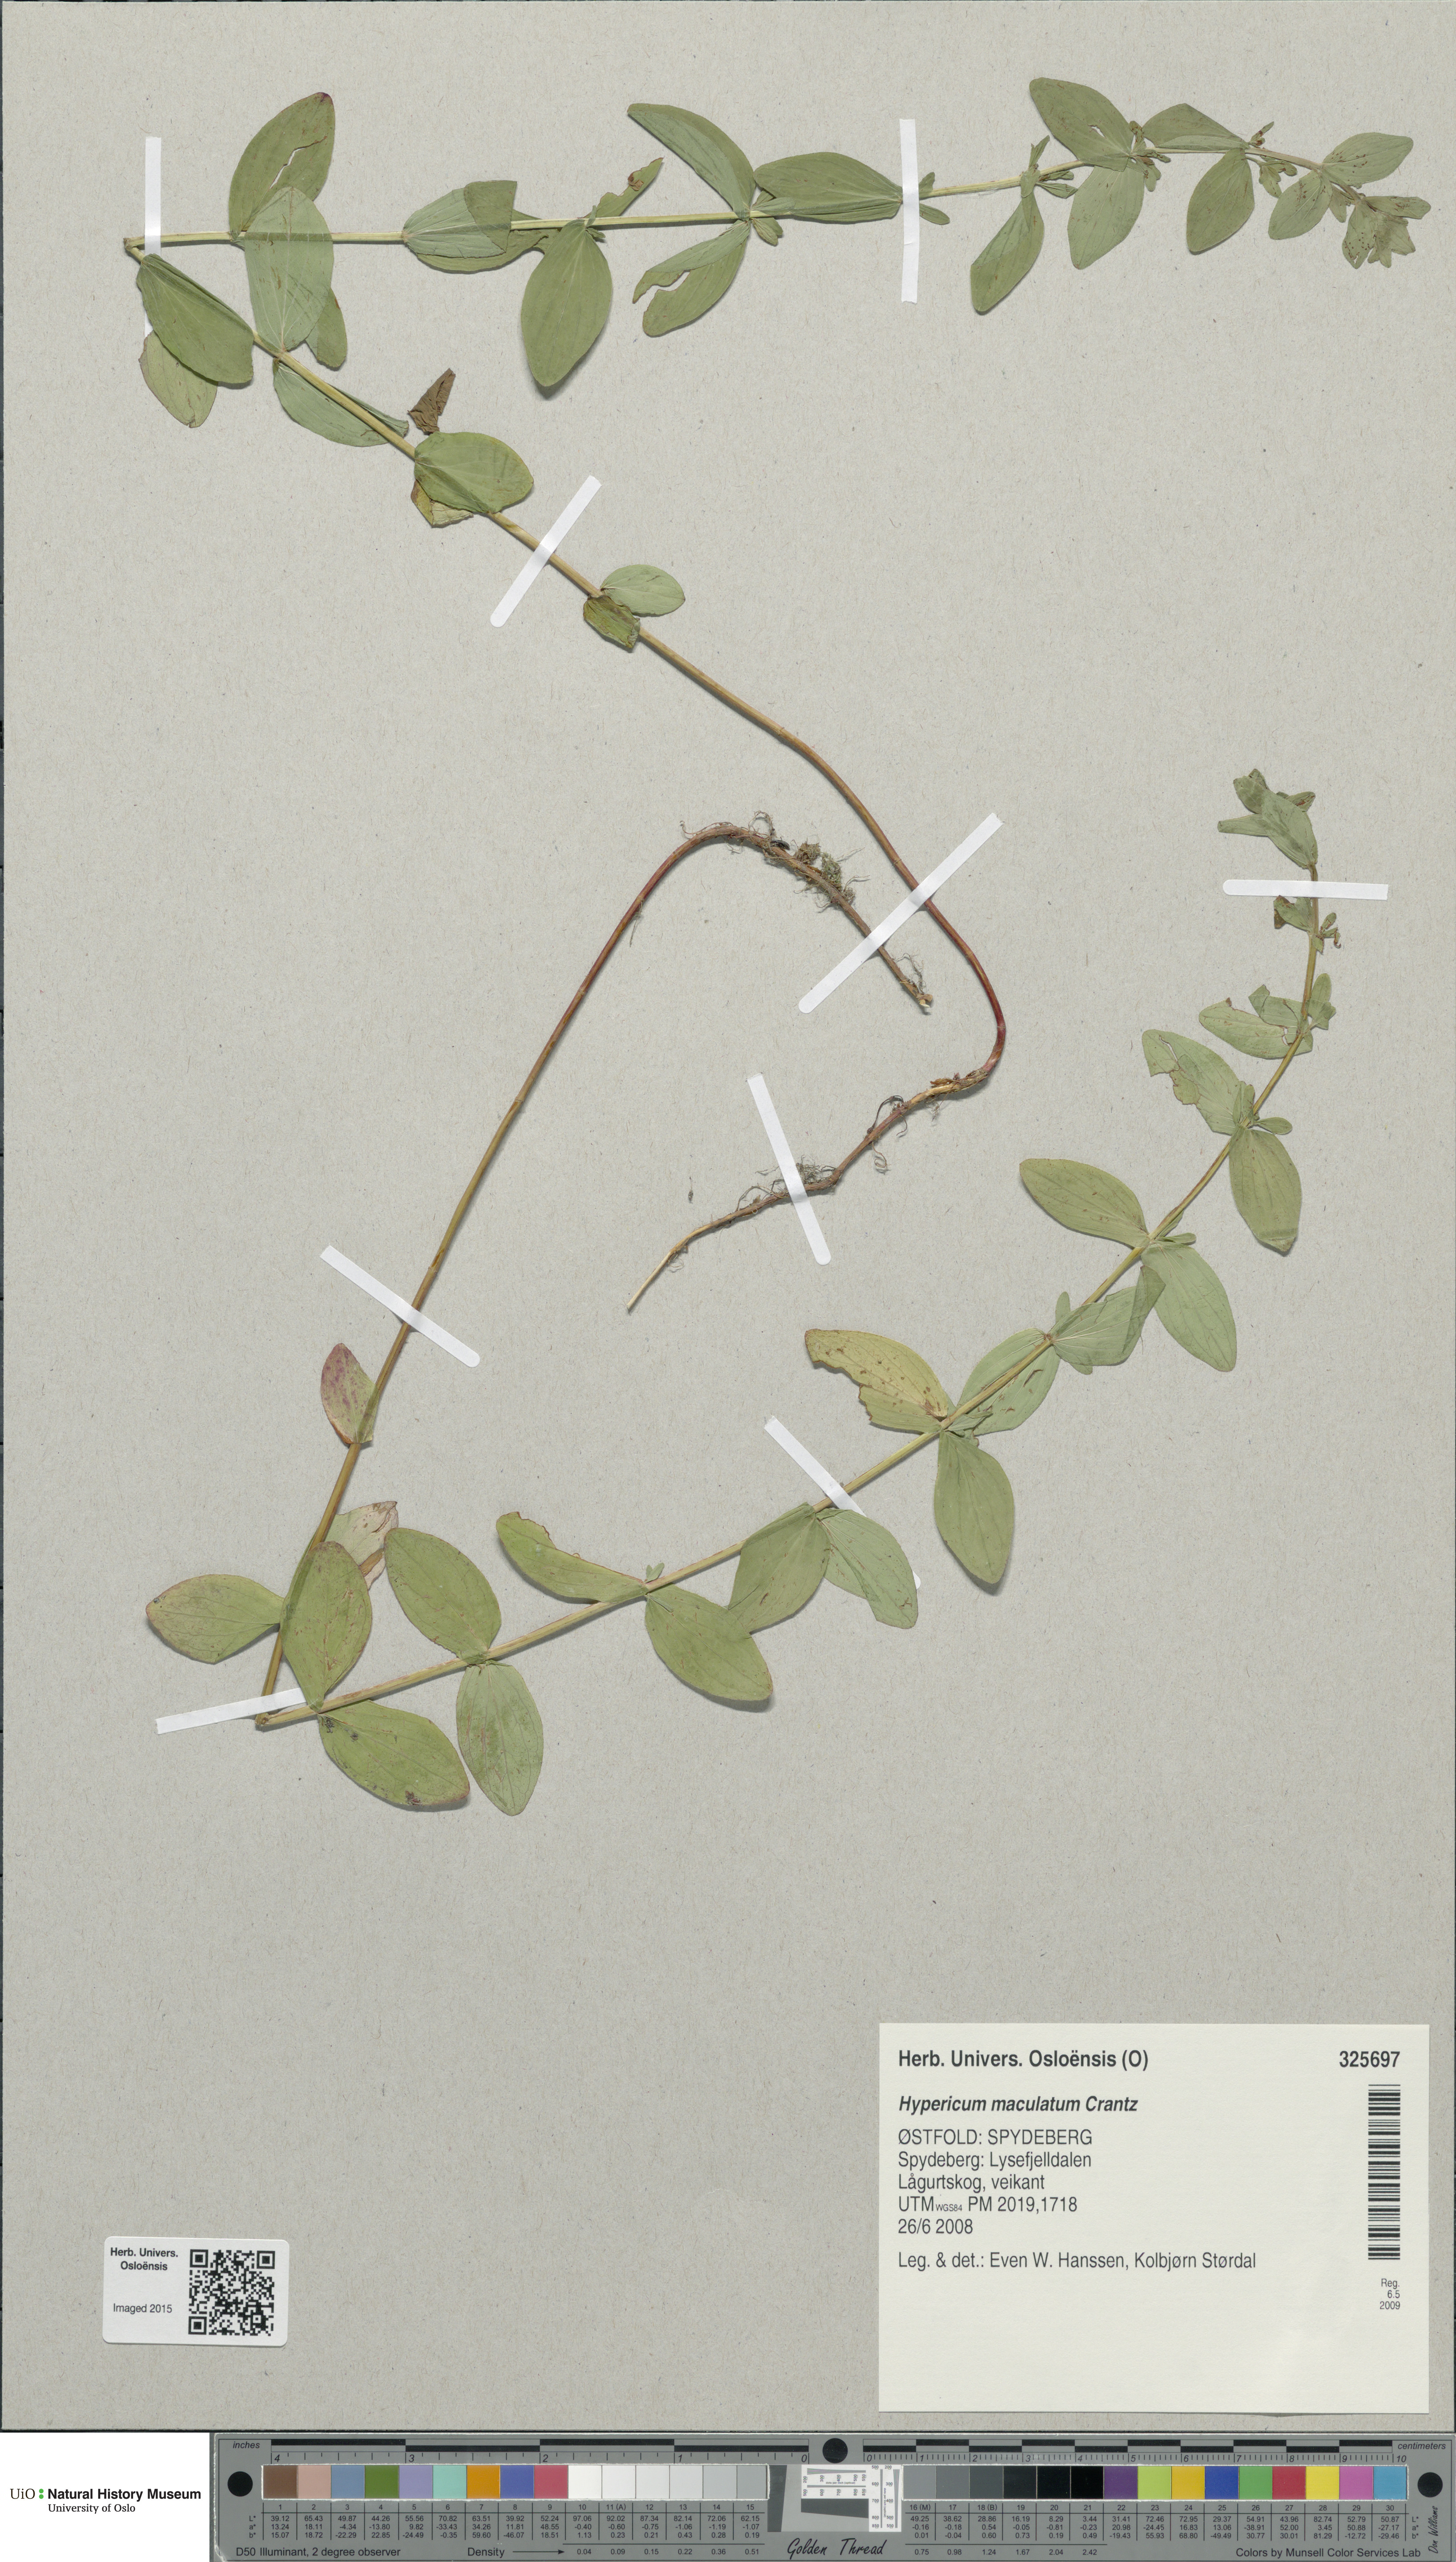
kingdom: Plantae
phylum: Tracheophyta
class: Magnoliopsida
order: Malpighiales
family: Hypericaceae
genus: Hypericum
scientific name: Hypericum maculatum
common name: Imperforate st. john's-wort
